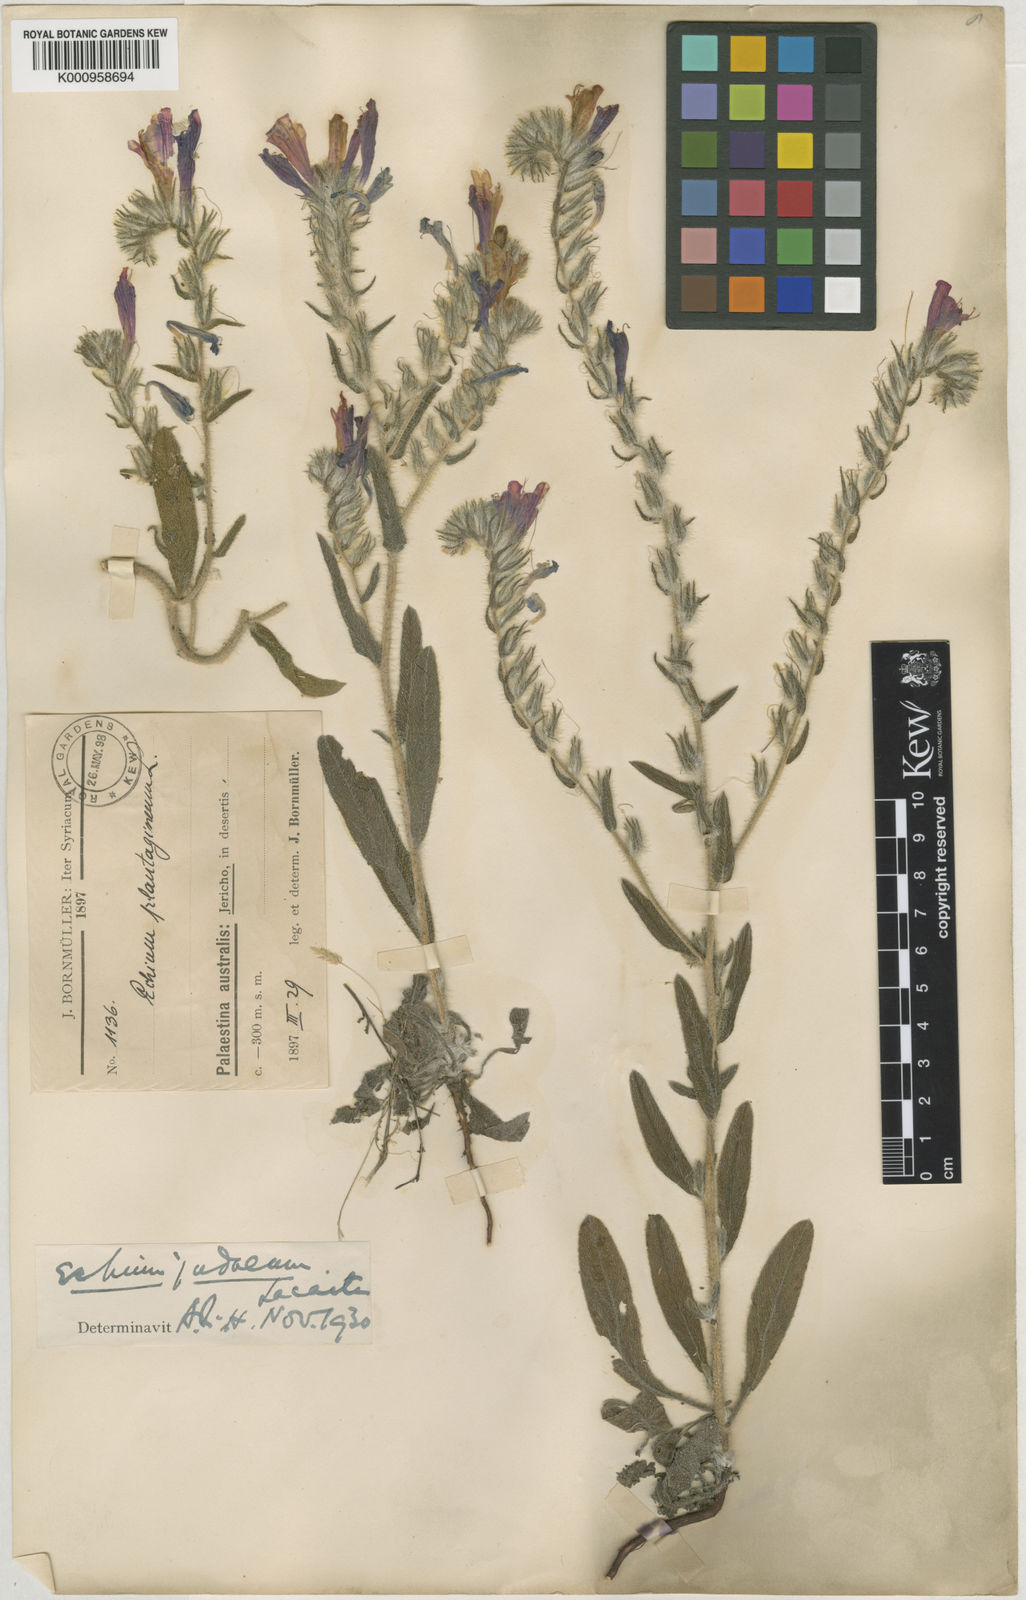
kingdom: Plantae
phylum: Tracheophyta
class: Magnoliopsida
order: Boraginales
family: Boraginaceae
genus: Echium
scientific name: Echium judaeum
